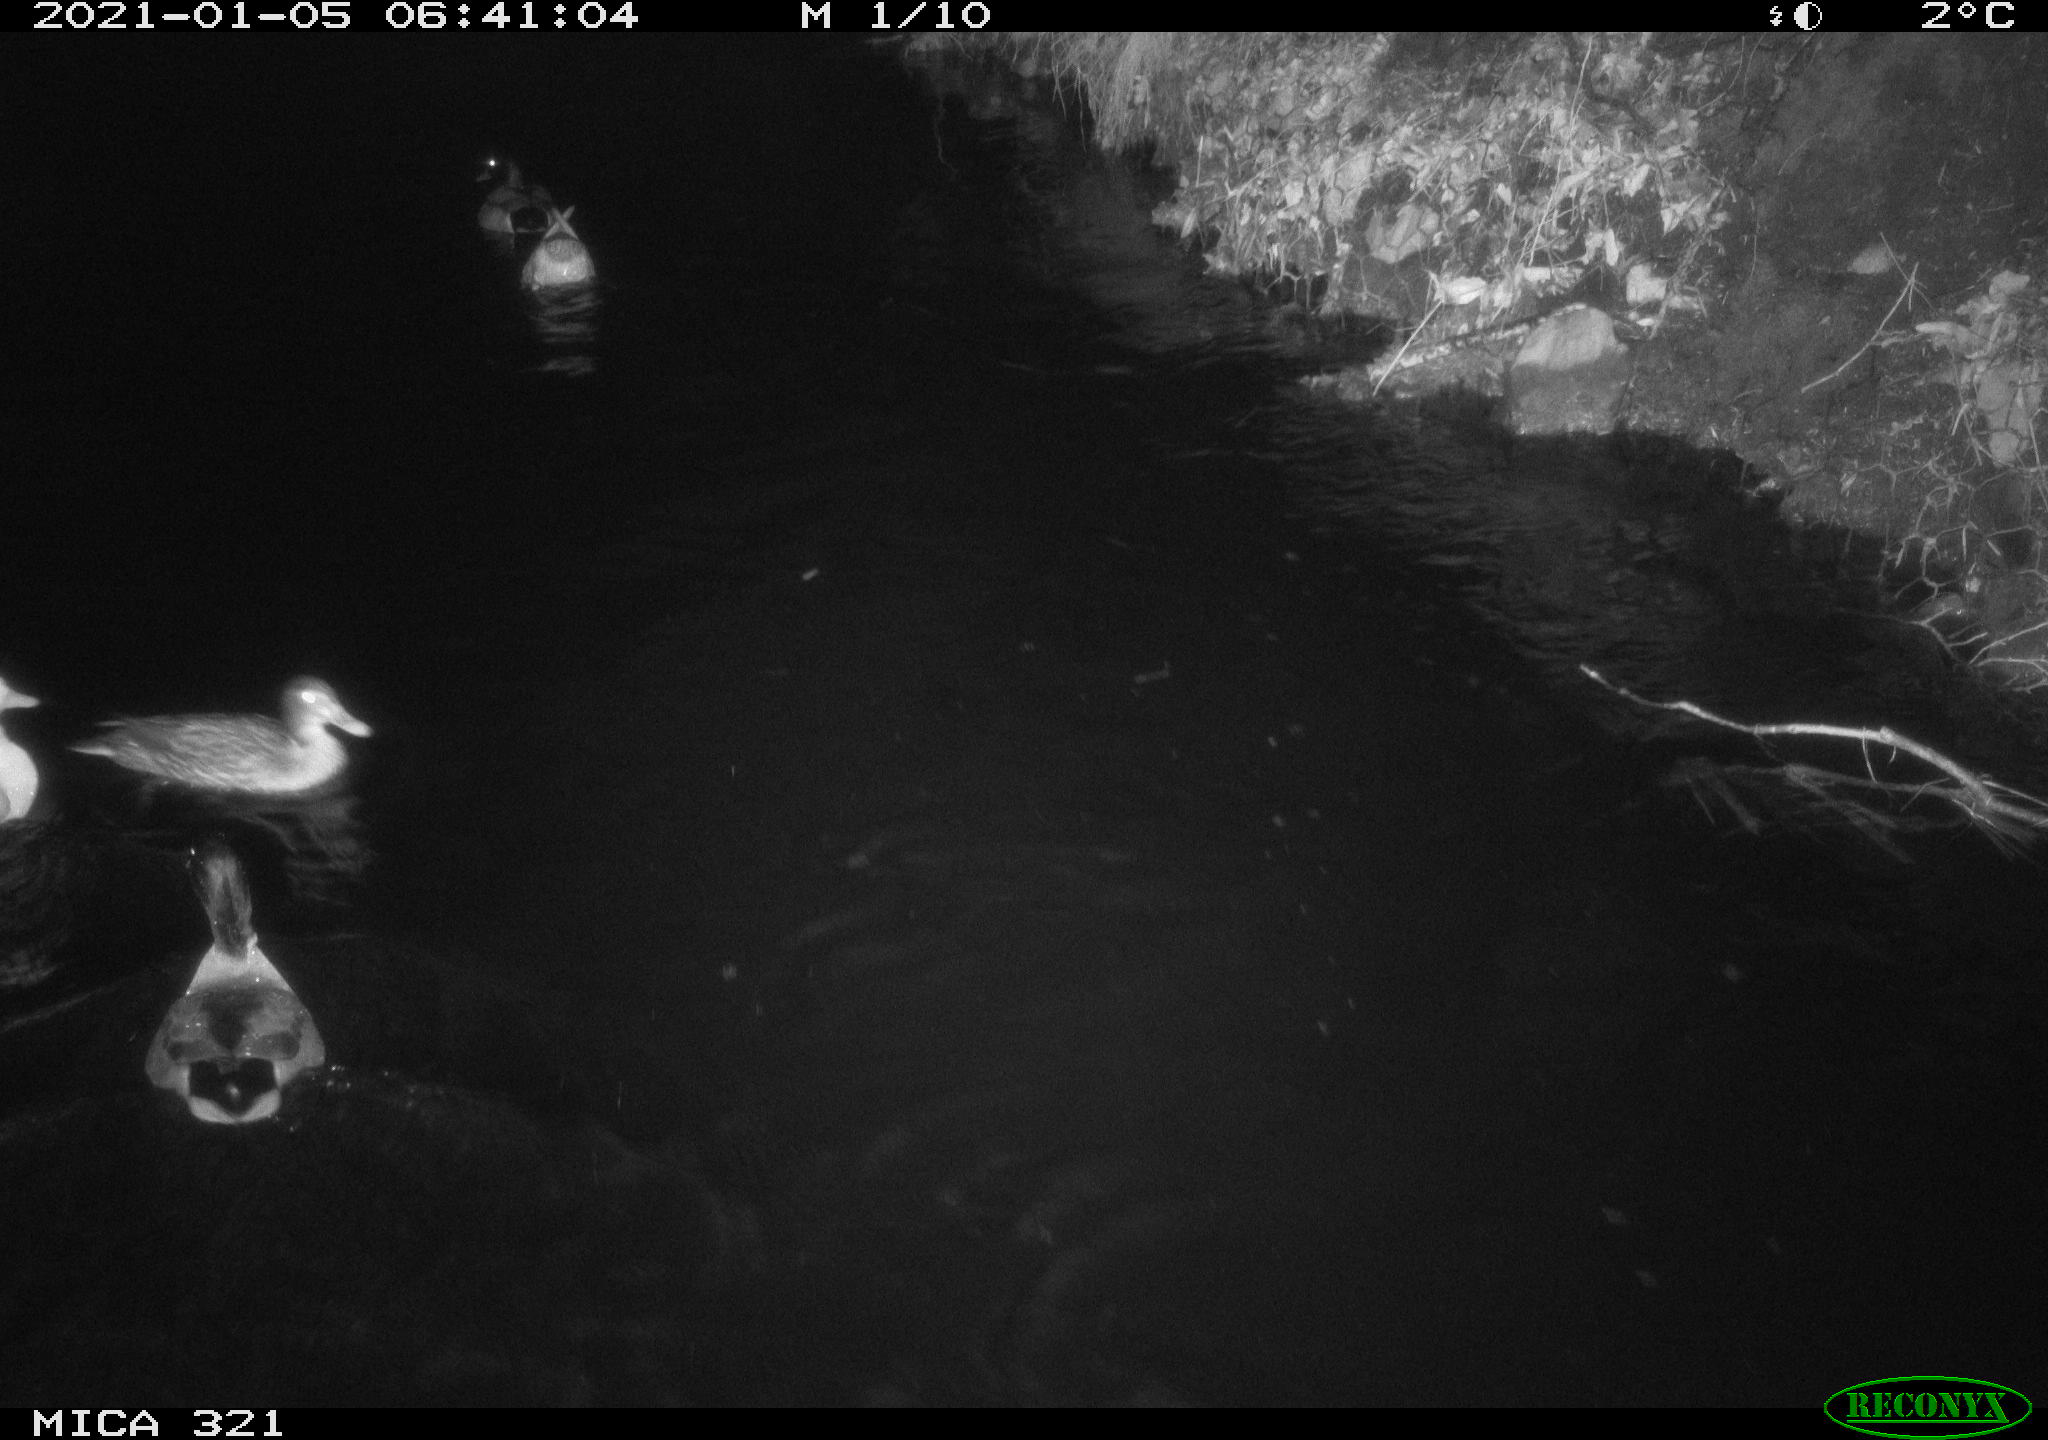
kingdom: Animalia
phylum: Chordata
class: Aves
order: Anseriformes
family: Anatidae
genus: Anas
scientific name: Anas platyrhynchos
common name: Mallard
